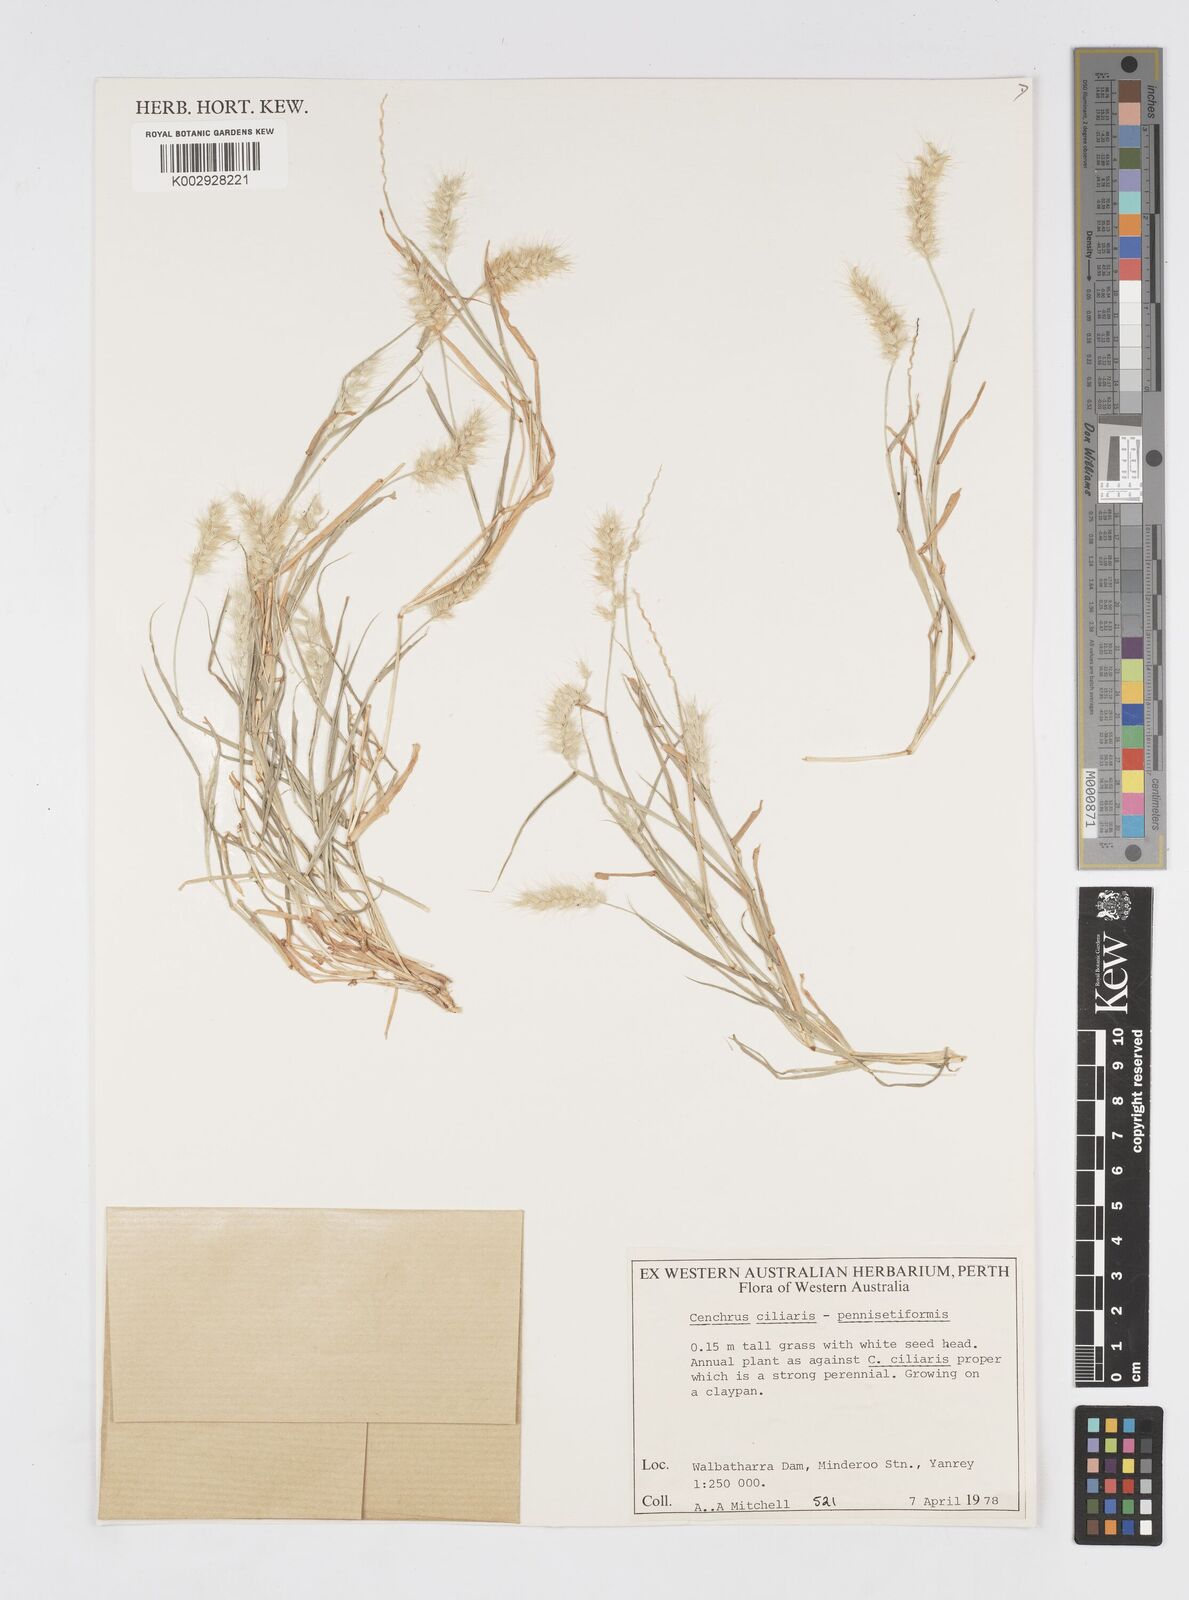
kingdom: Plantae
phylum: Tracheophyta
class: Liliopsida
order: Poales
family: Poaceae
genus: Cenchrus
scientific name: Cenchrus
